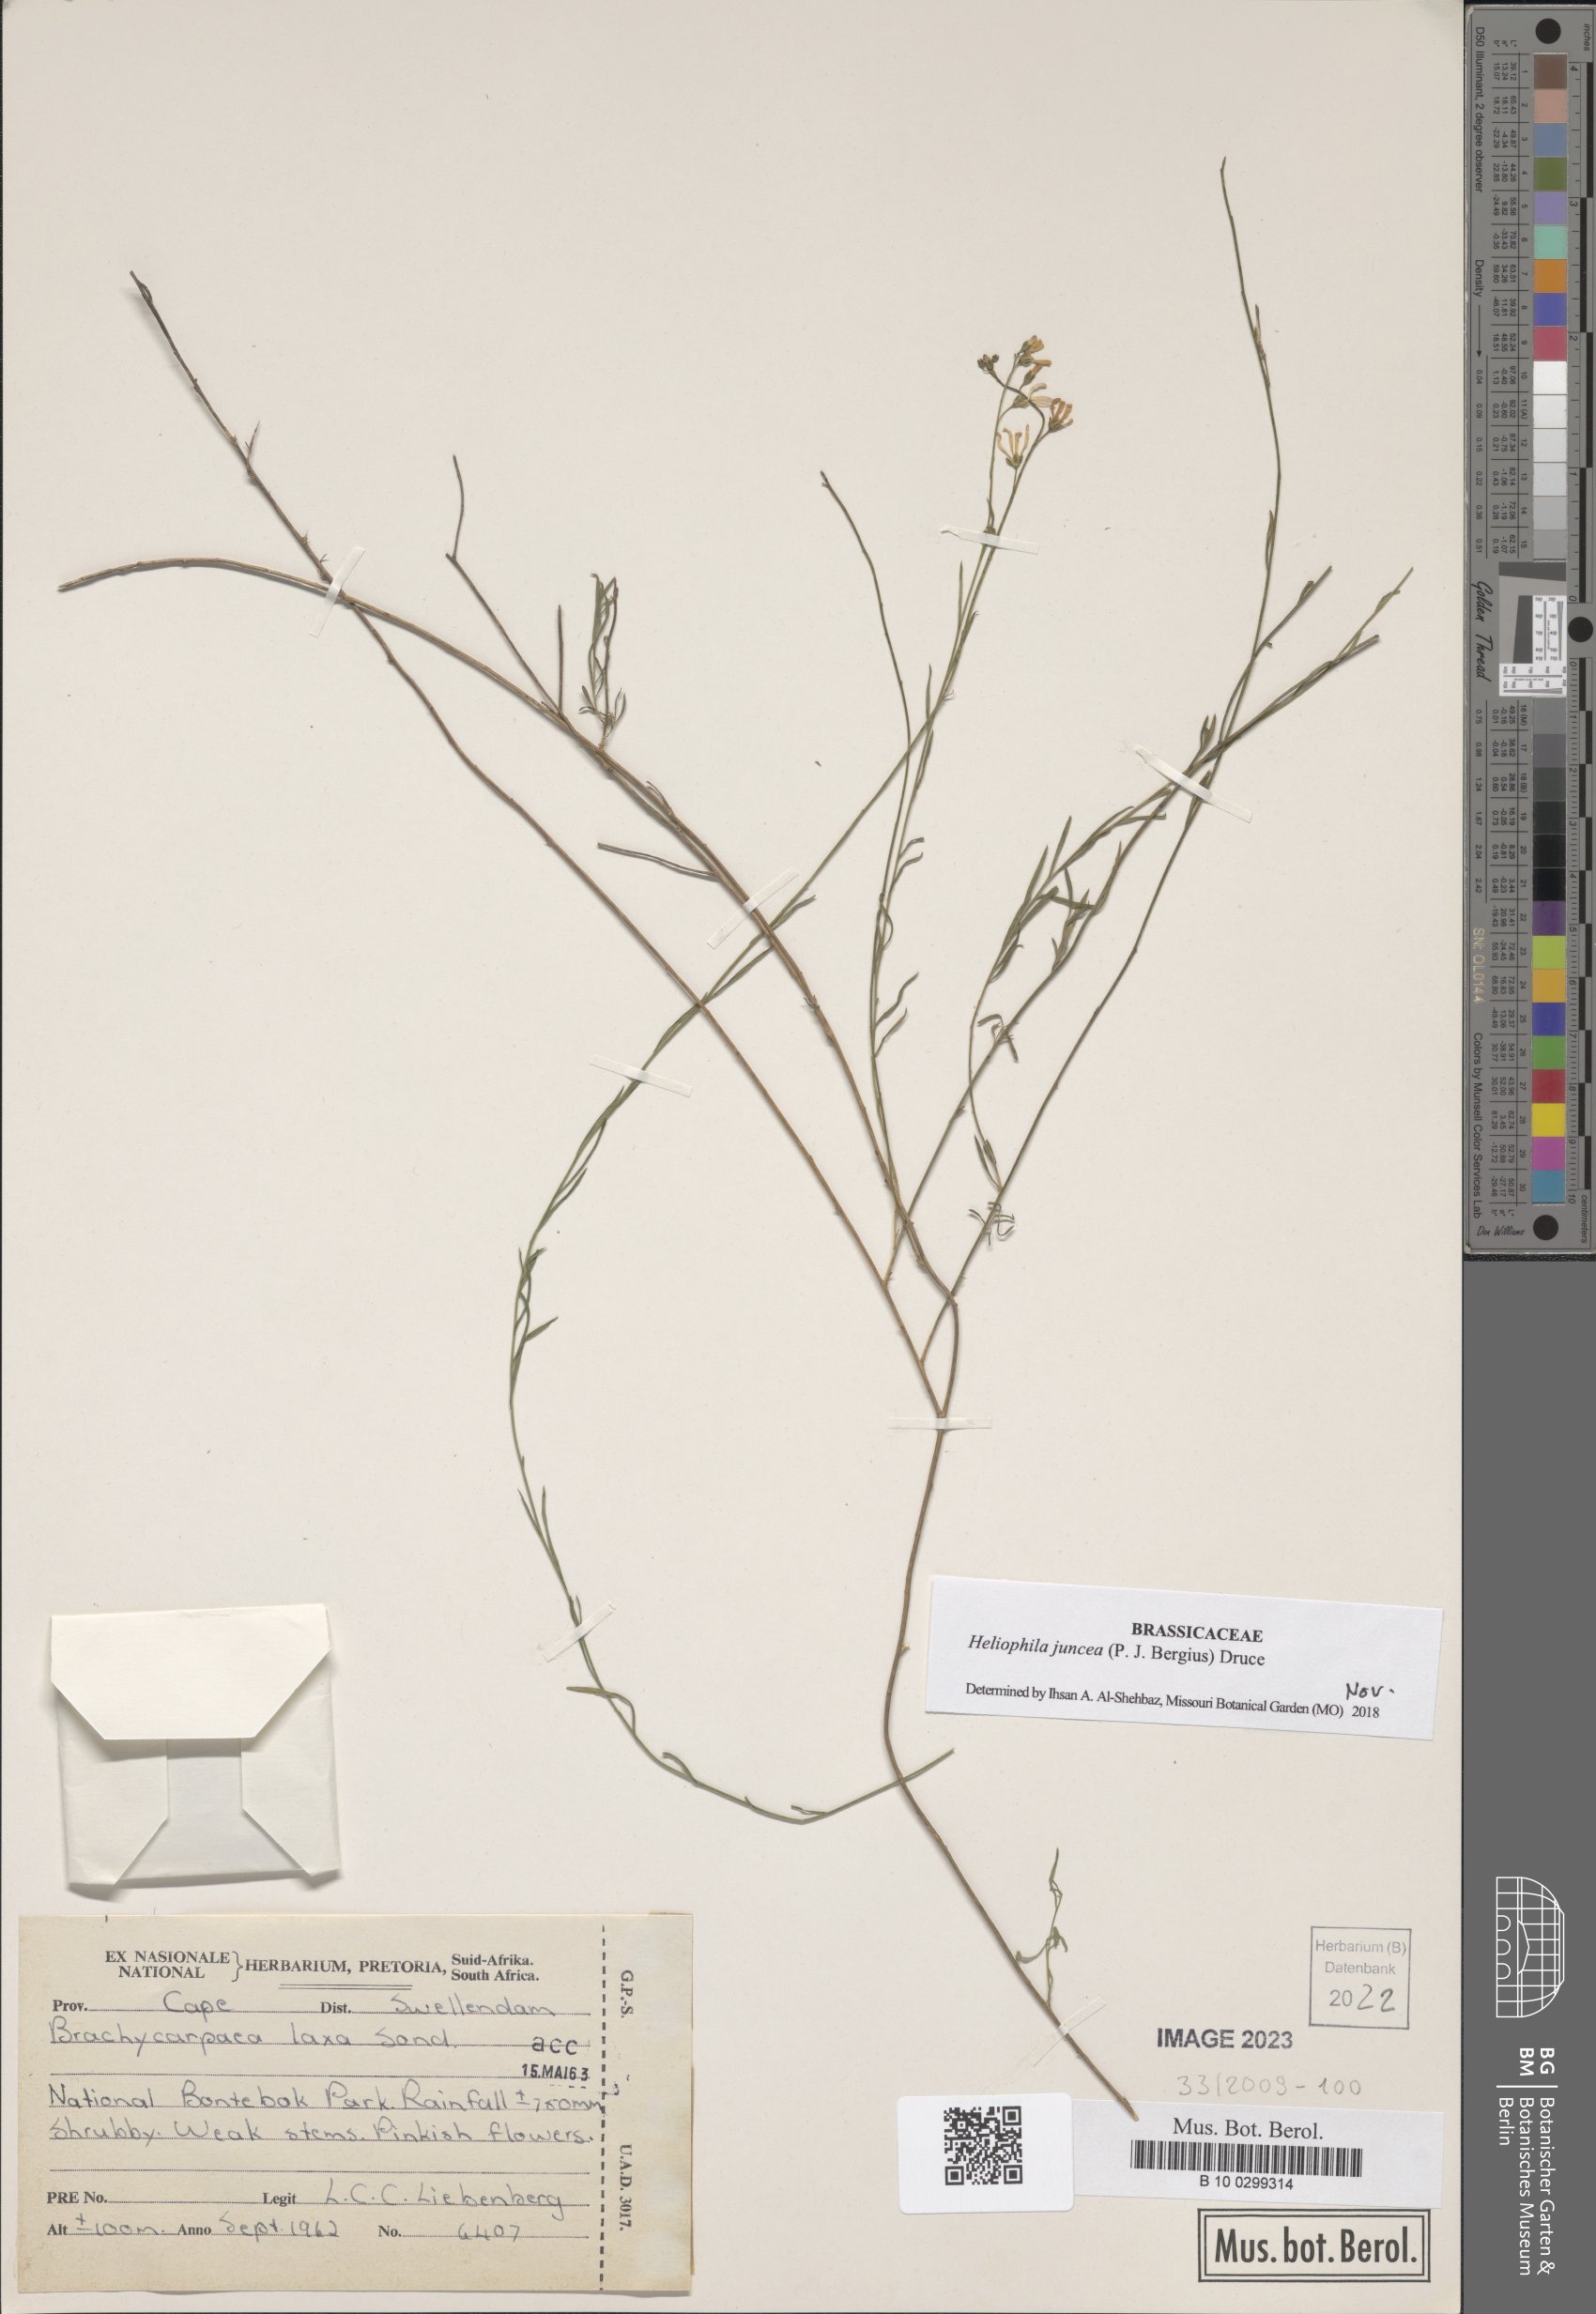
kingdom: Plantae
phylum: Tracheophyta
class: Magnoliopsida
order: Brassicales
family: Brassicaceae
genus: Heliophila
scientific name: Heliophila juncea
